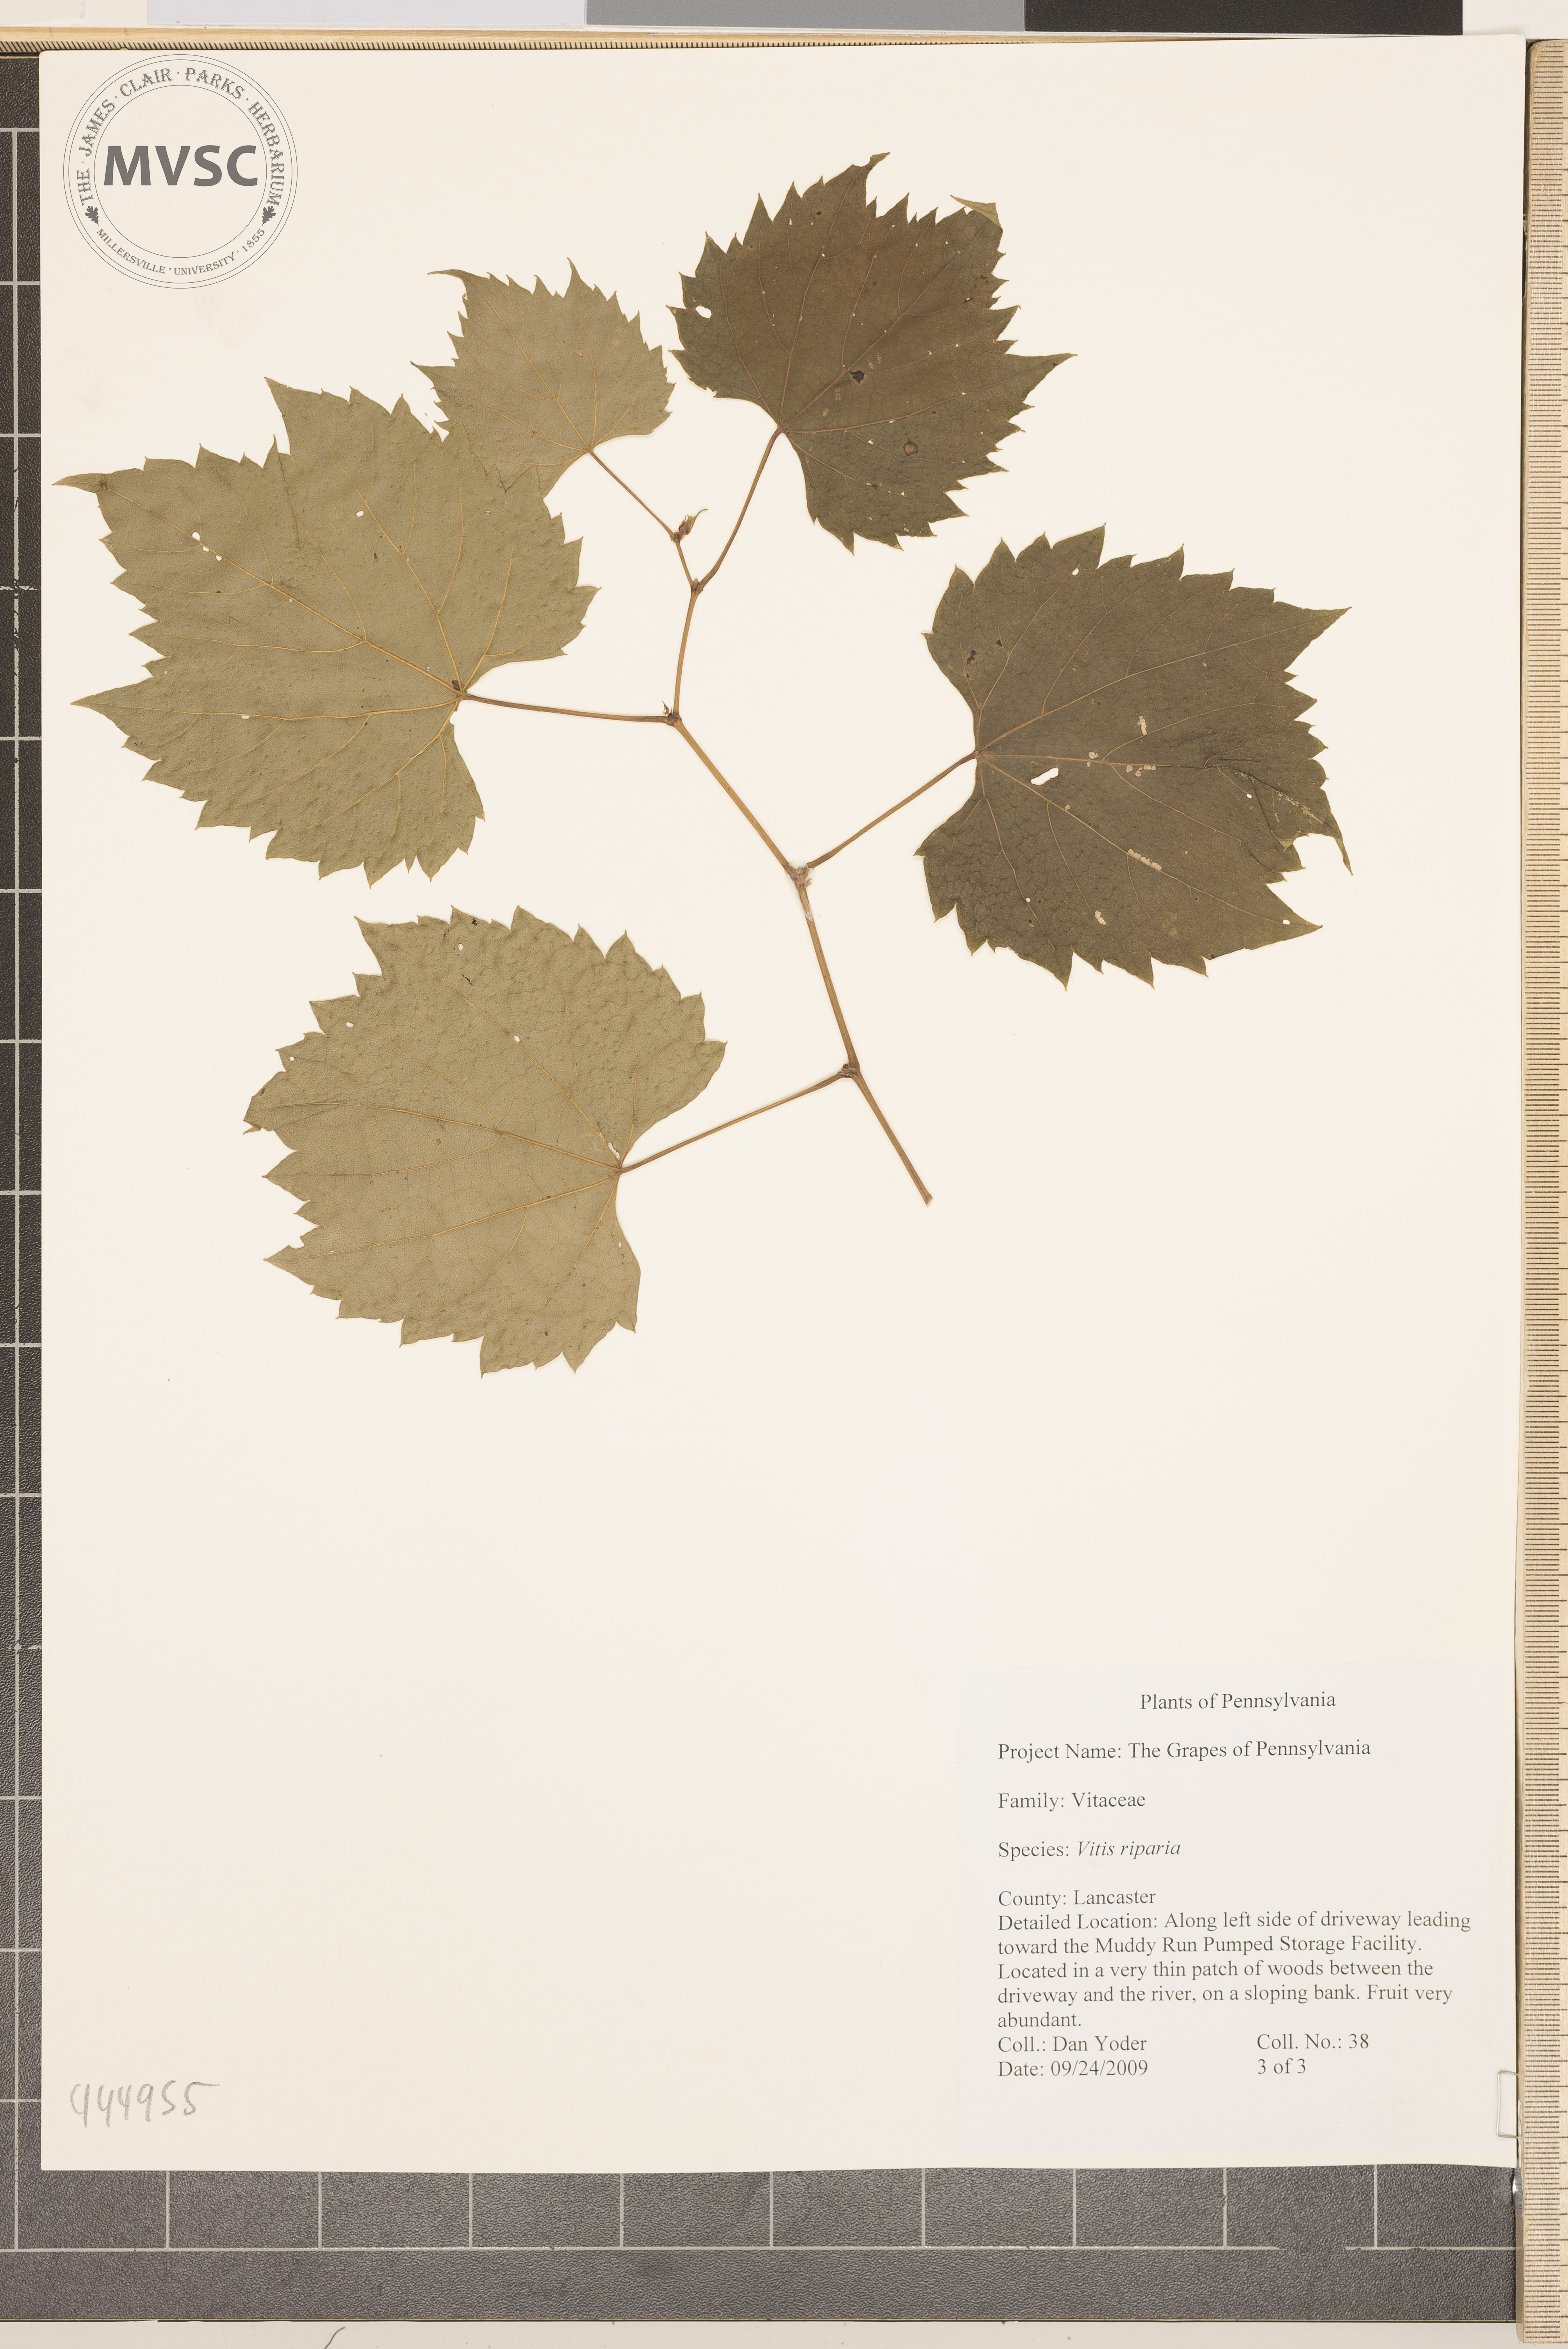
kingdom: Plantae
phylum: Tracheophyta
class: Magnoliopsida
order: Vitales
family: Vitaceae
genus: Vitis
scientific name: Vitis riparia
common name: Riverbank grape
